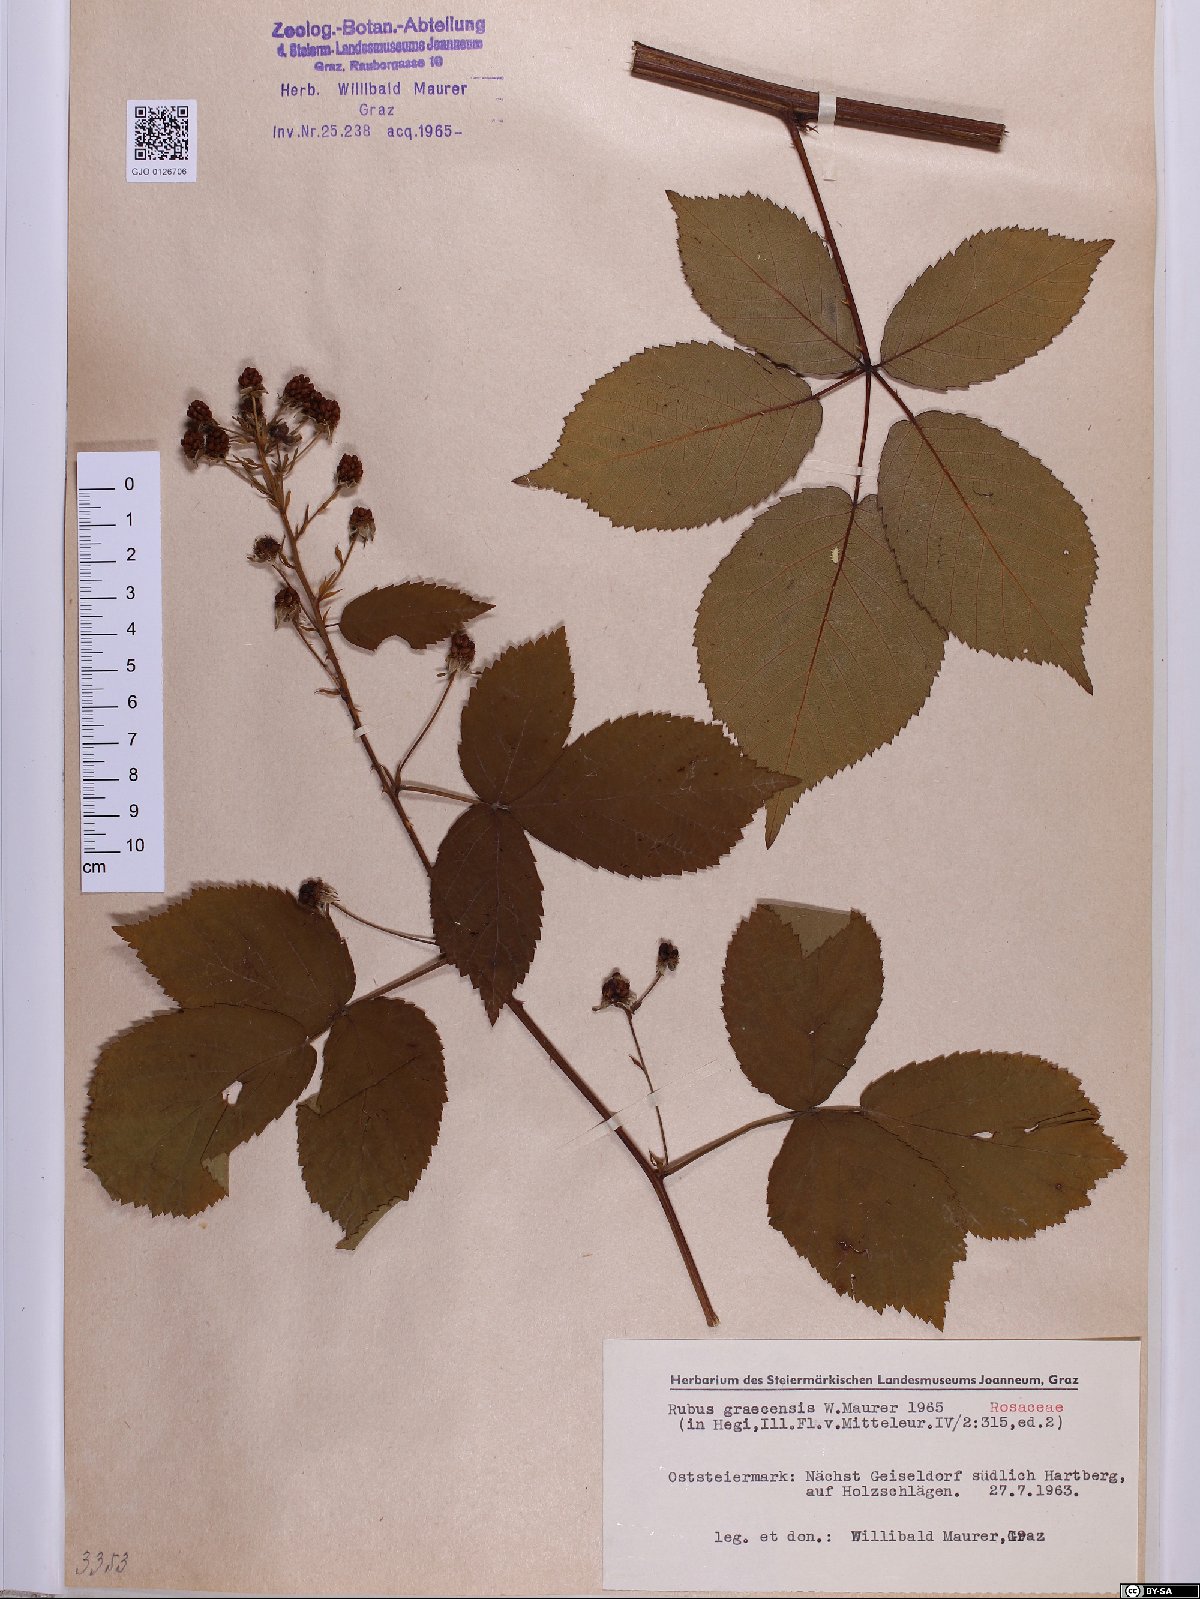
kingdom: Plantae
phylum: Tracheophyta
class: Magnoliopsida
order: Rosales
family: Rosaceae
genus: Rubus
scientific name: Rubus graecensis
